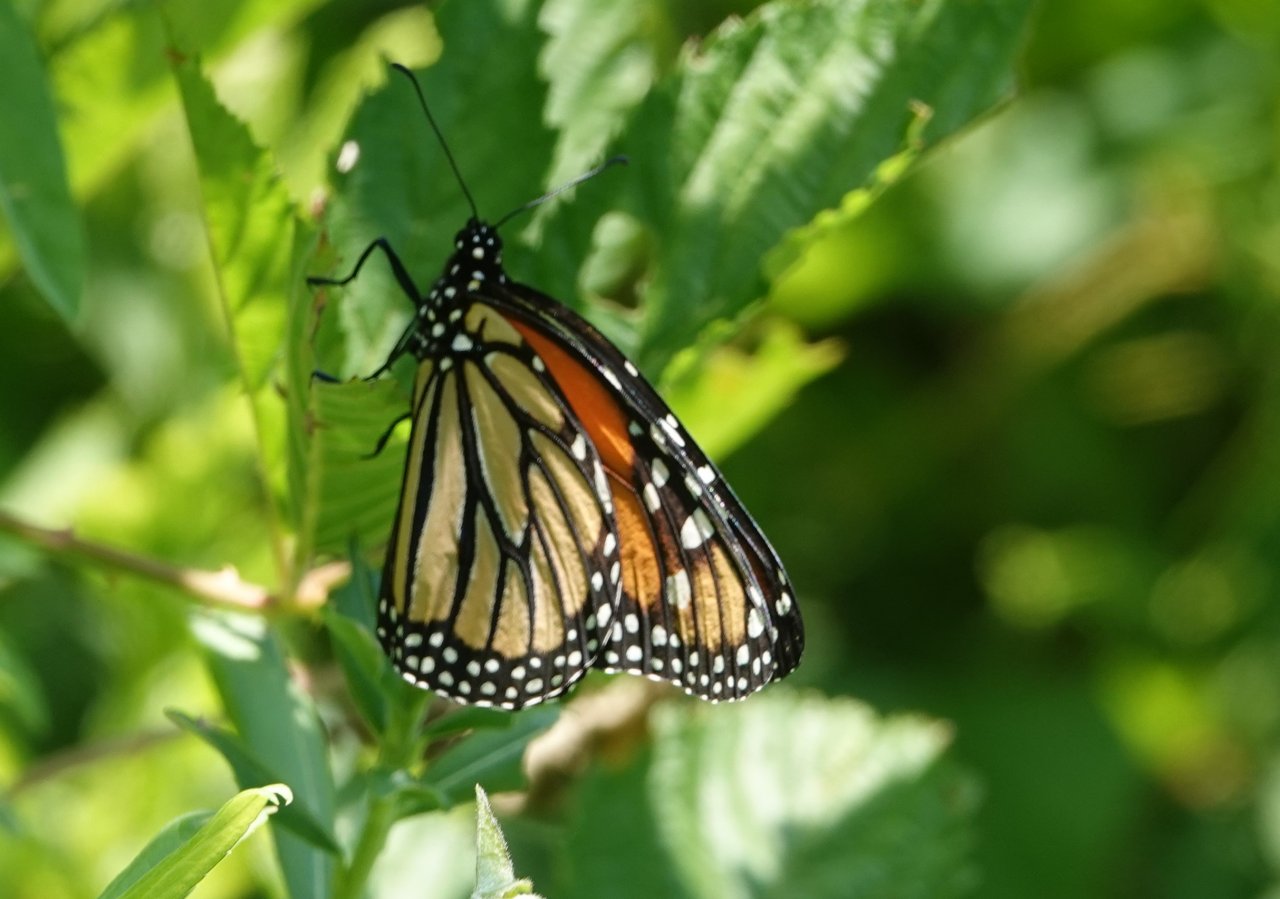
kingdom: Animalia
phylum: Arthropoda
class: Insecta
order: Lepidoptera
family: Nymphalidae
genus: Danaus
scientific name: Danaus plexippus
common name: Monarch
